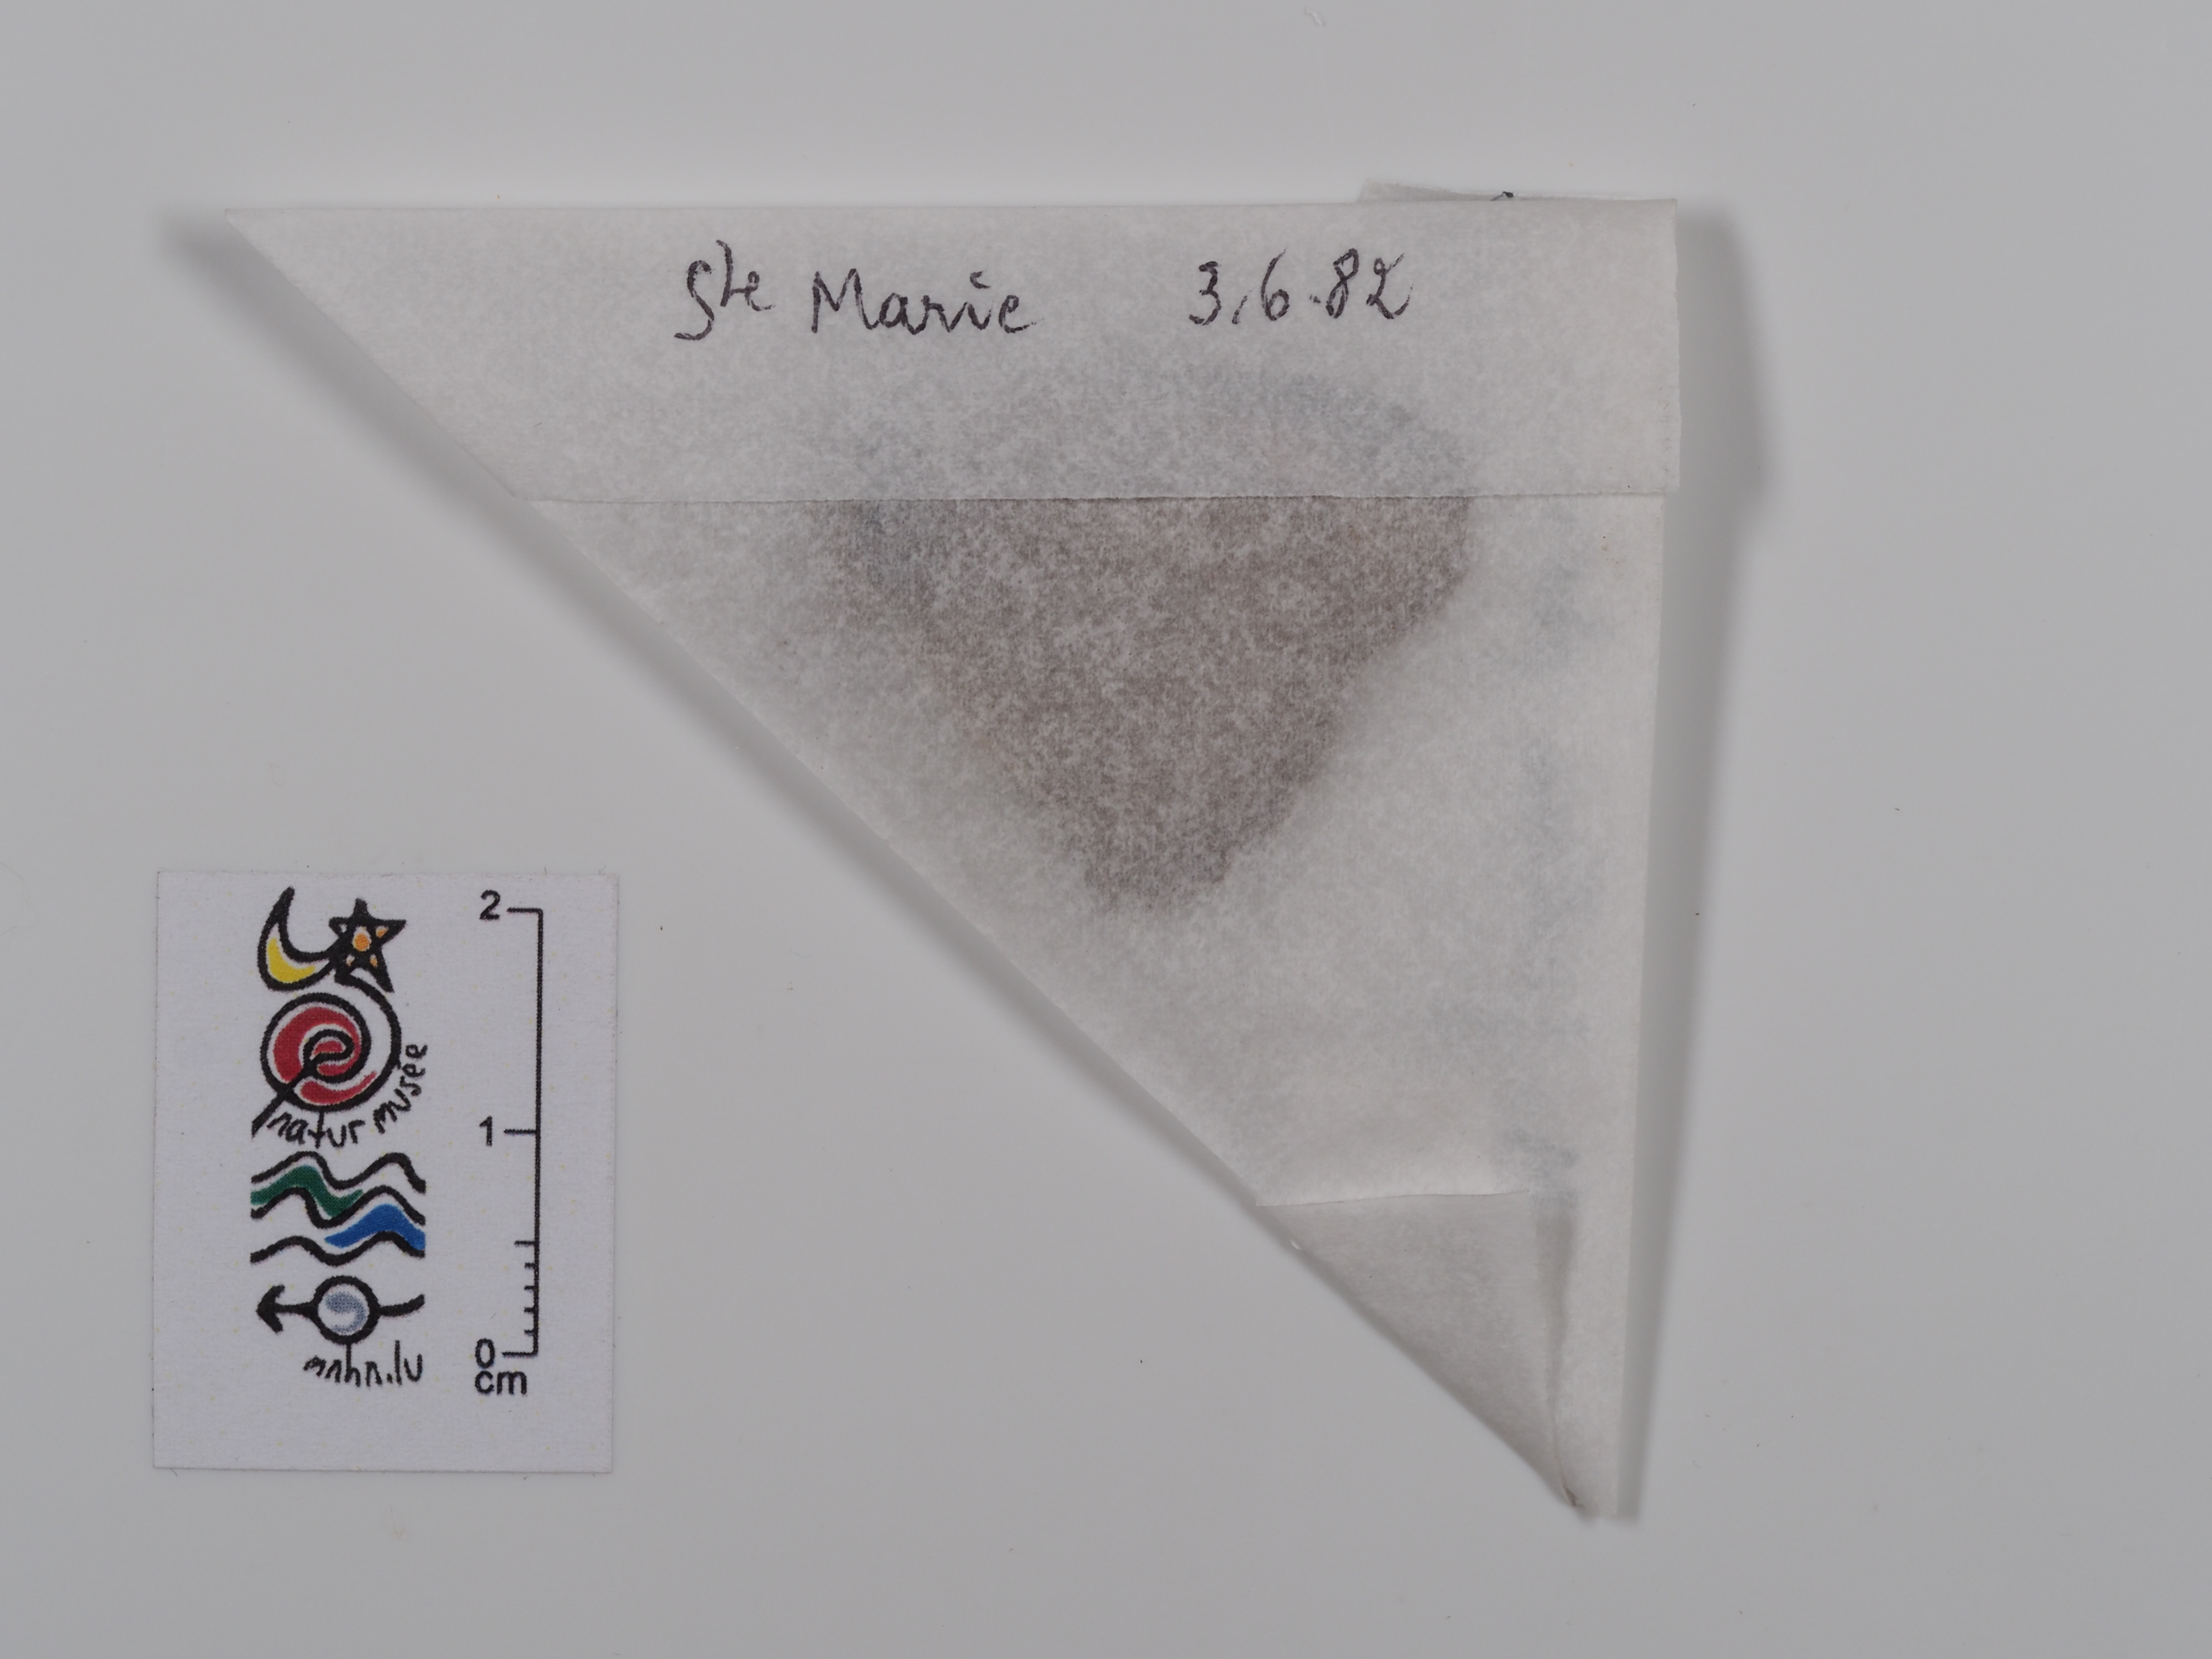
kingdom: Animalia
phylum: Arthropoda
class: Insecta
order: Lepidoptera
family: Nymphalidae
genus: Maniola
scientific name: Maniola jurtina
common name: Meadow brown
